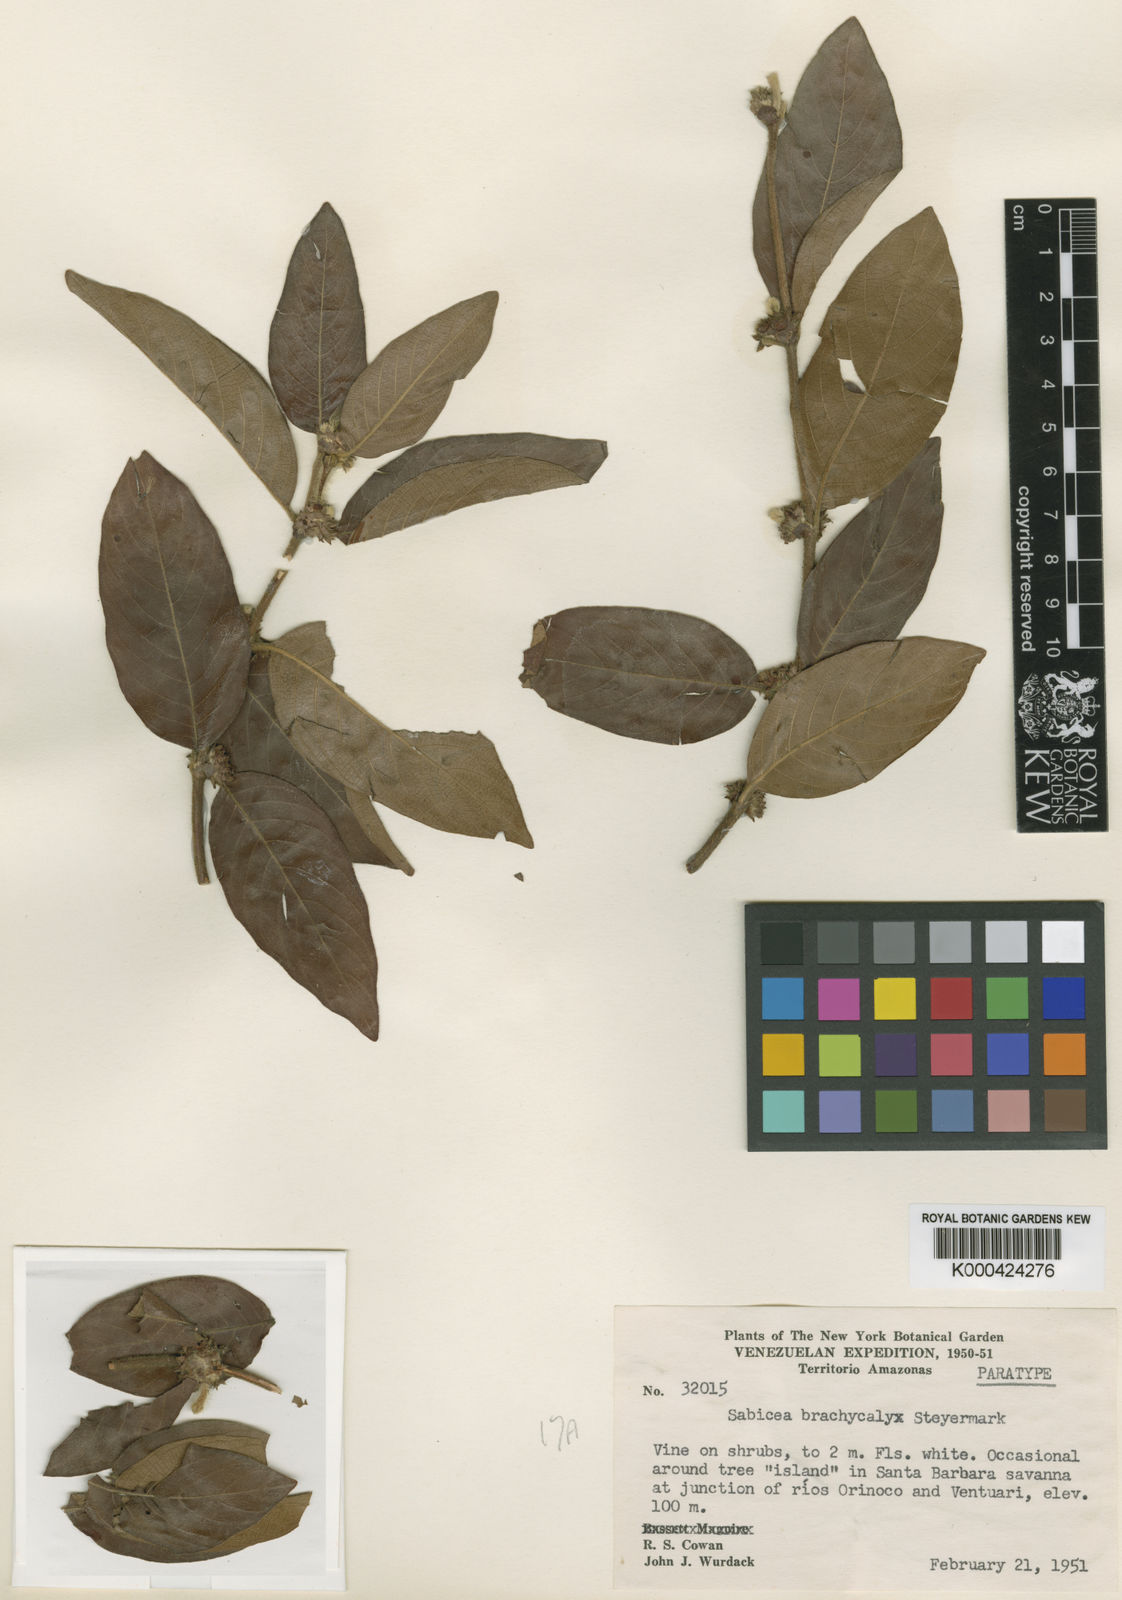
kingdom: Plantae
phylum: Tracheophyta
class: Magnoliopsida
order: Gentianales
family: Rubiaceae
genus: Sabicea
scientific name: Sabicea brachycalyx
